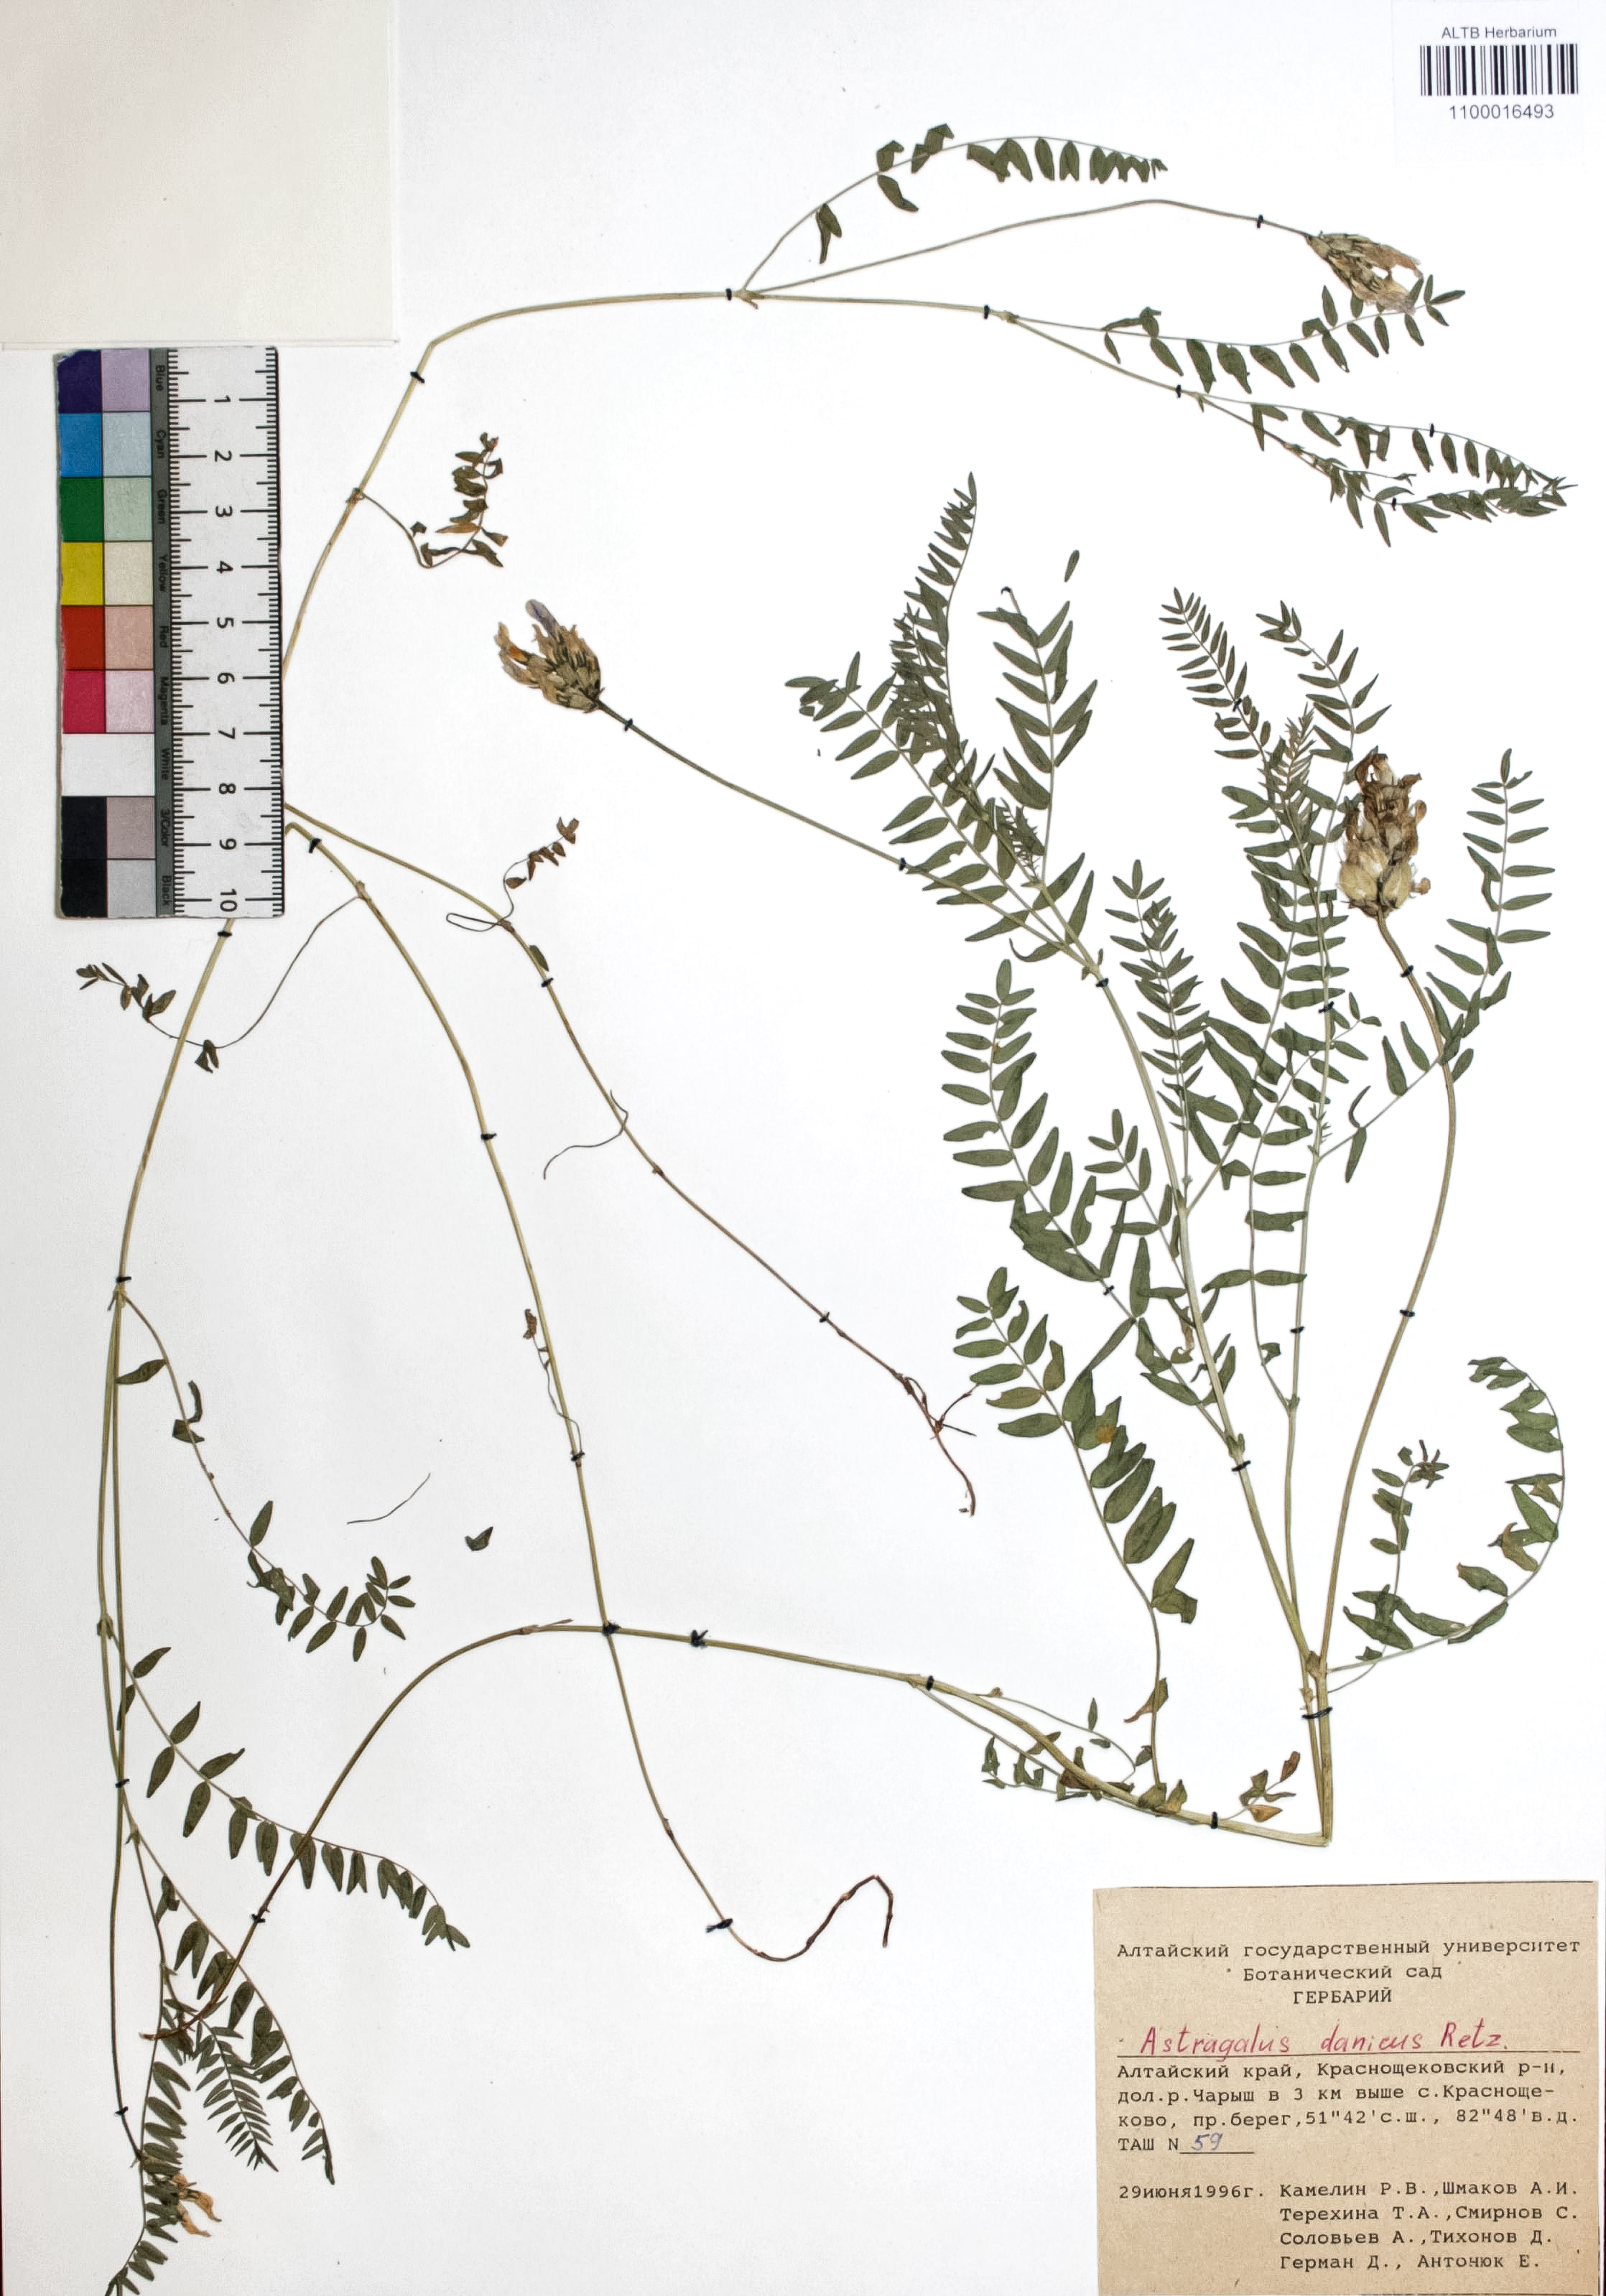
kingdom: Plantae
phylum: Tracheophyta
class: Magnoliopsida
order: Fabales
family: Fabaceae
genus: Astragalus
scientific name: Astragalus danicus
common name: Purple milk-vetch
